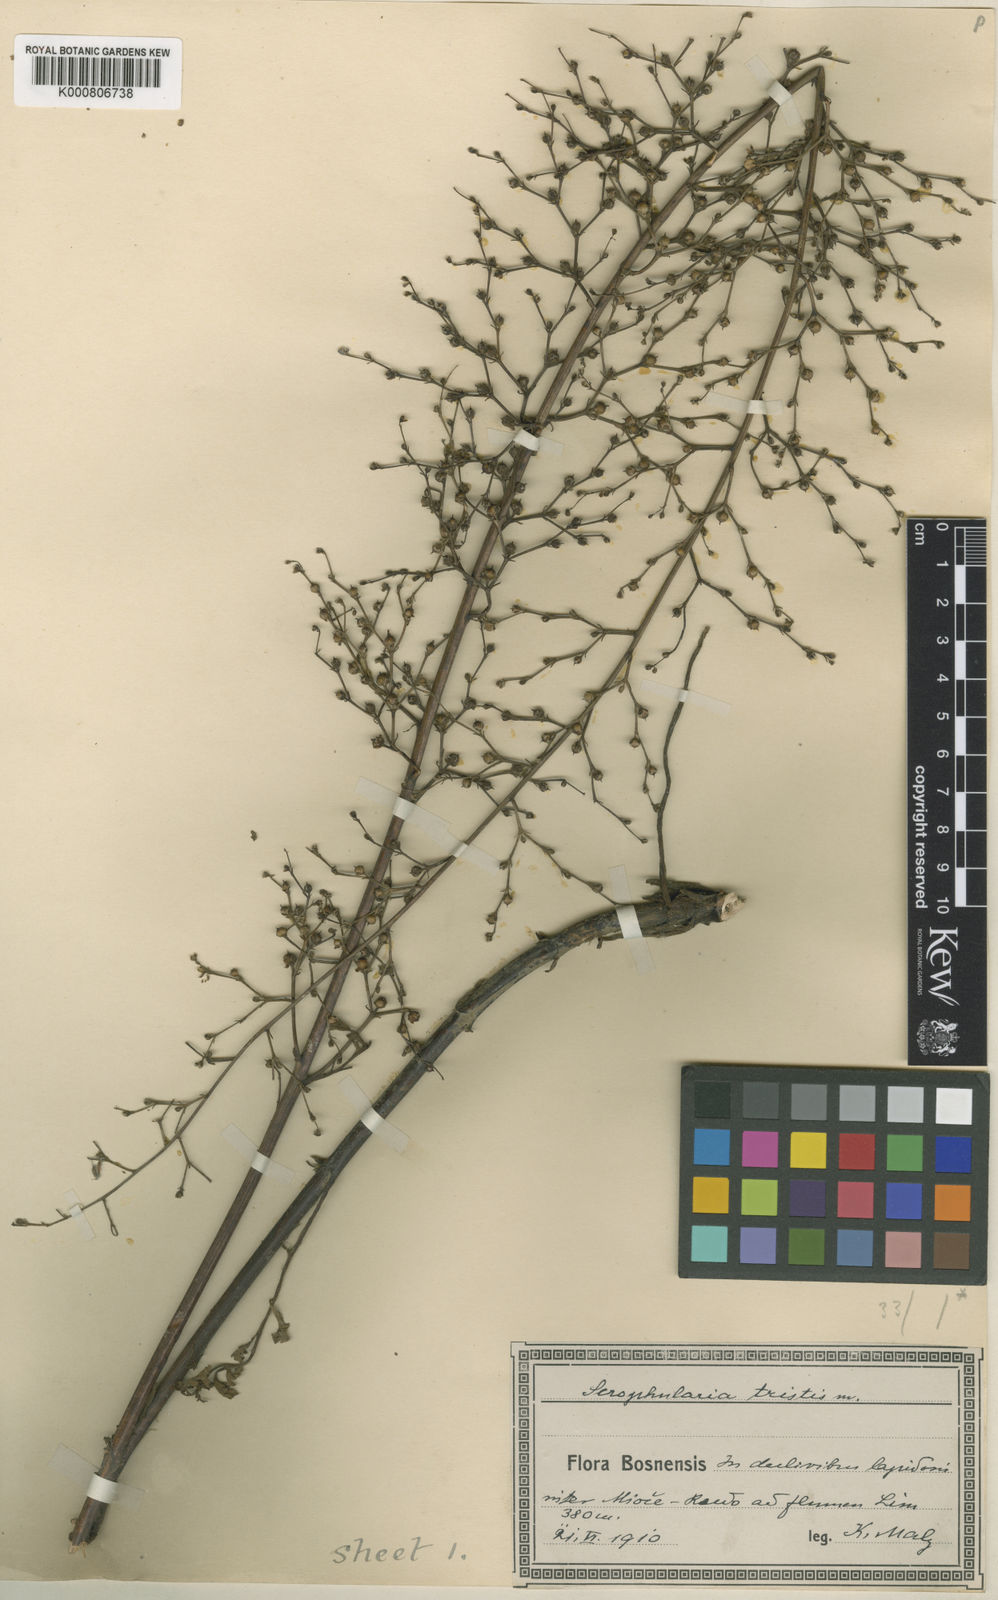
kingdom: Plantae
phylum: Tracheophyta
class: Magnoliopsida
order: Lamiales
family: Scrophulariaceae
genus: Scrophularia
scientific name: Scrophularia
